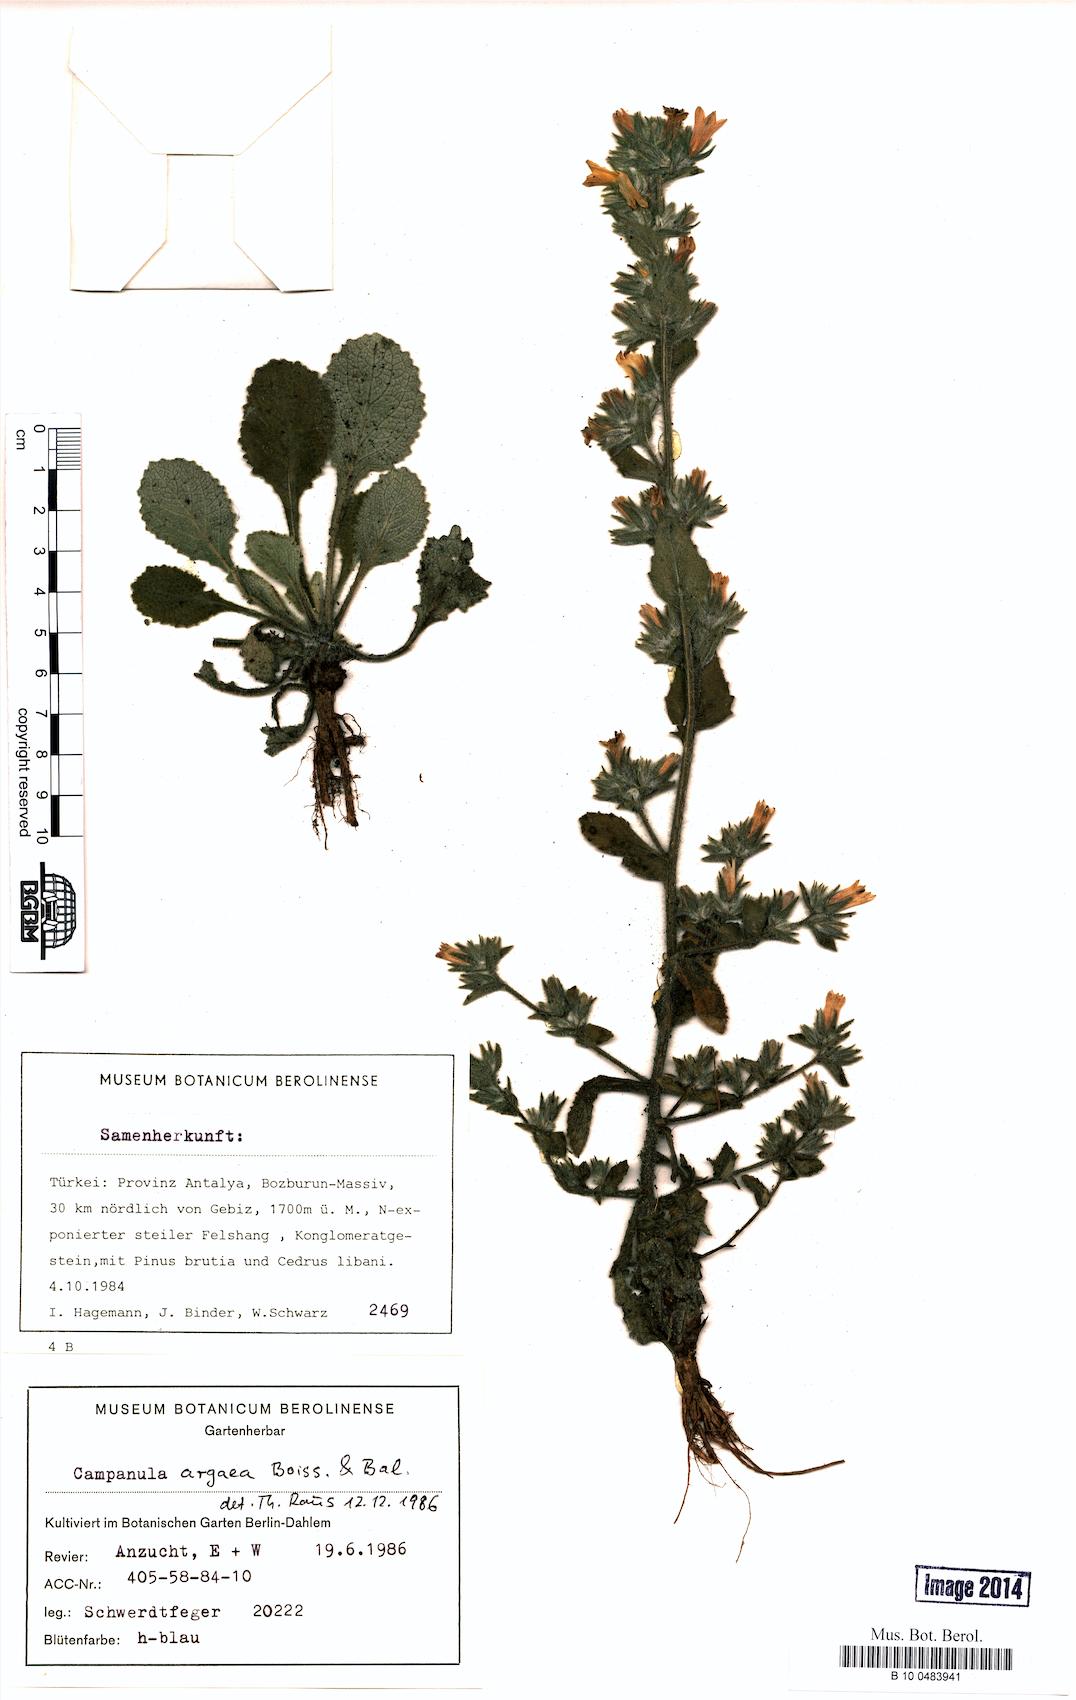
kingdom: Plantae
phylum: Tracheophyta
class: Magnoliopsida
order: Asterales
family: Campanulaceae
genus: Campanula
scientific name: Campanula ajugifolia
